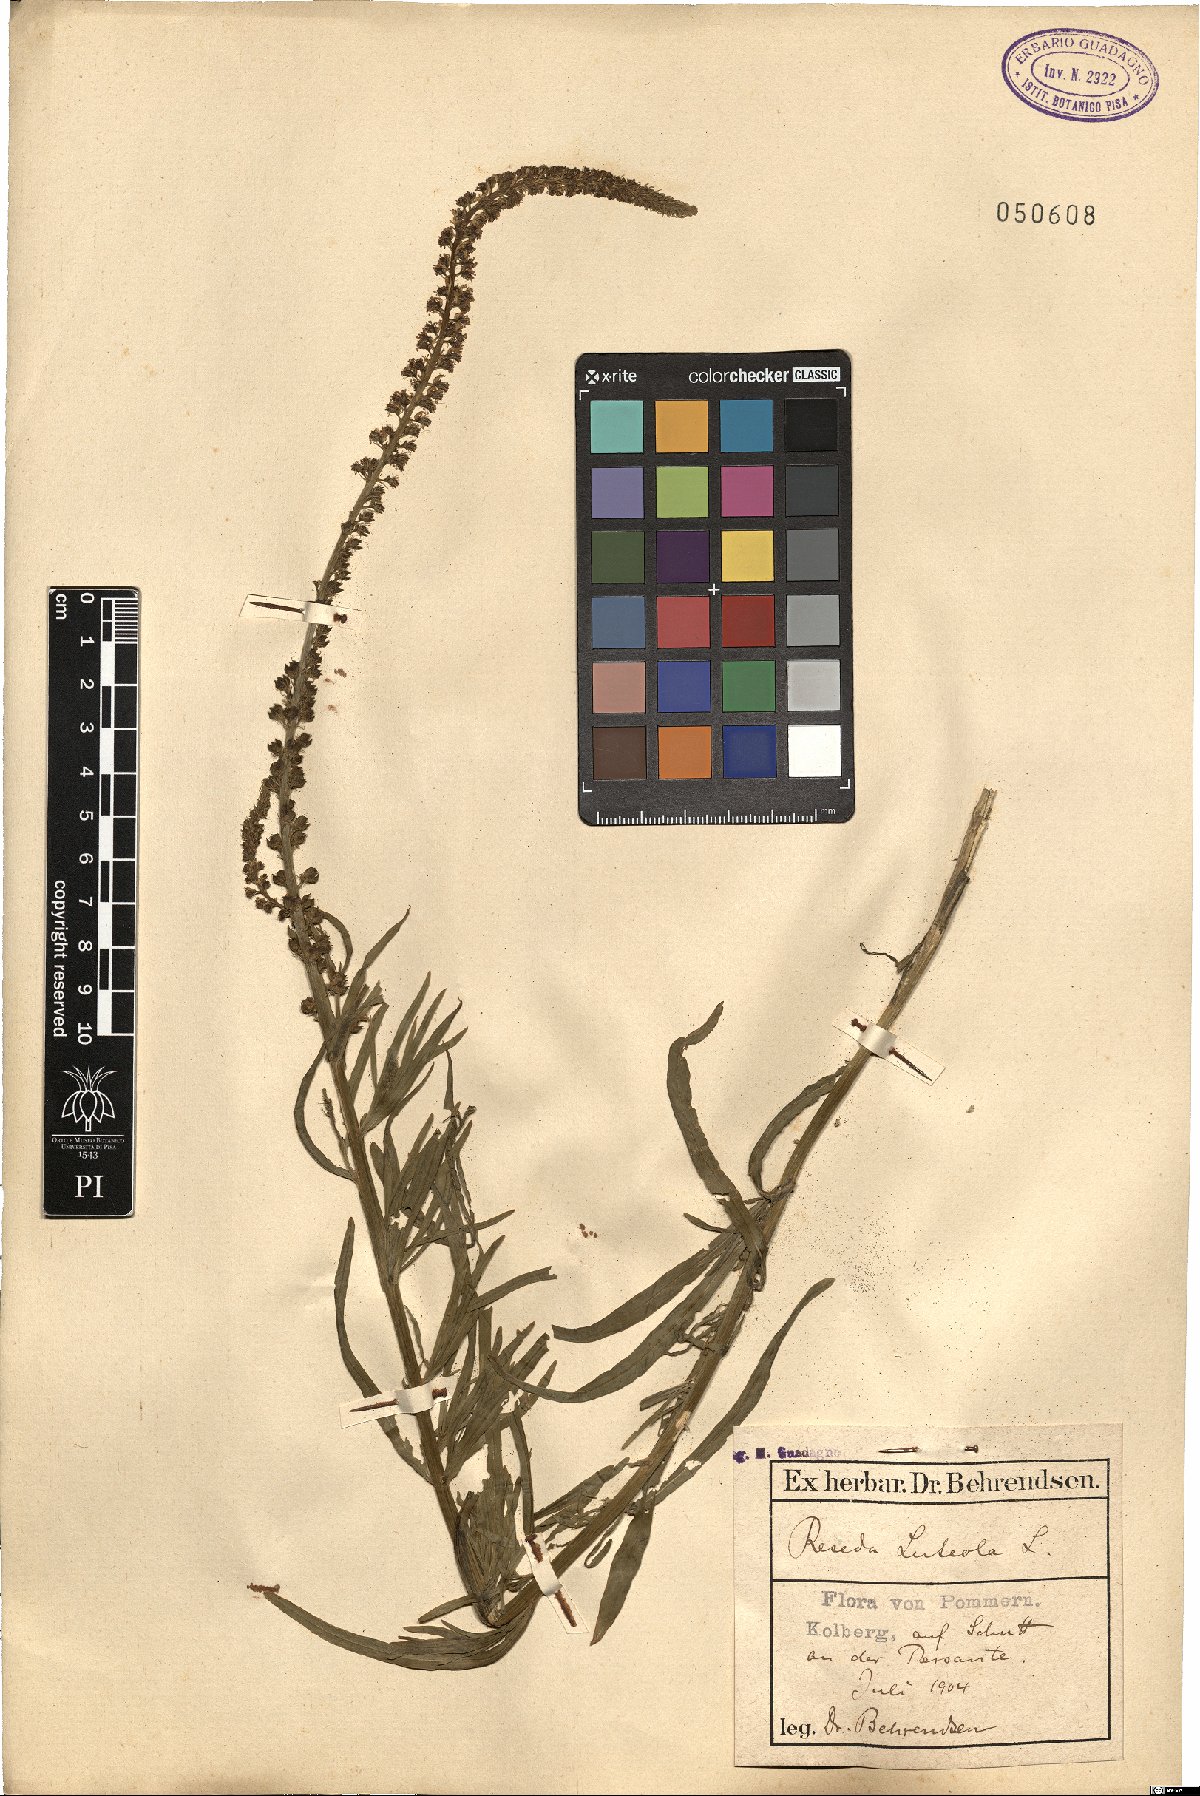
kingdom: Plantae
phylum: Tracheophyta
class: Magnoliopsida
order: Brassicales
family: Resedaceae
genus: Reseda
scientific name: Reseda luteola
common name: Weld
